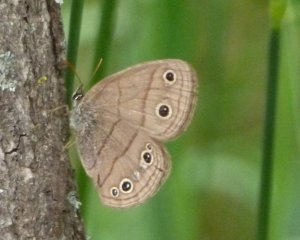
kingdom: Animalia
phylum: Arthropoda
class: Insecta
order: Lepidoptera
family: Nymphalidae
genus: Euptychia
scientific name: Euptychia cymela
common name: Little Wood Satyr
